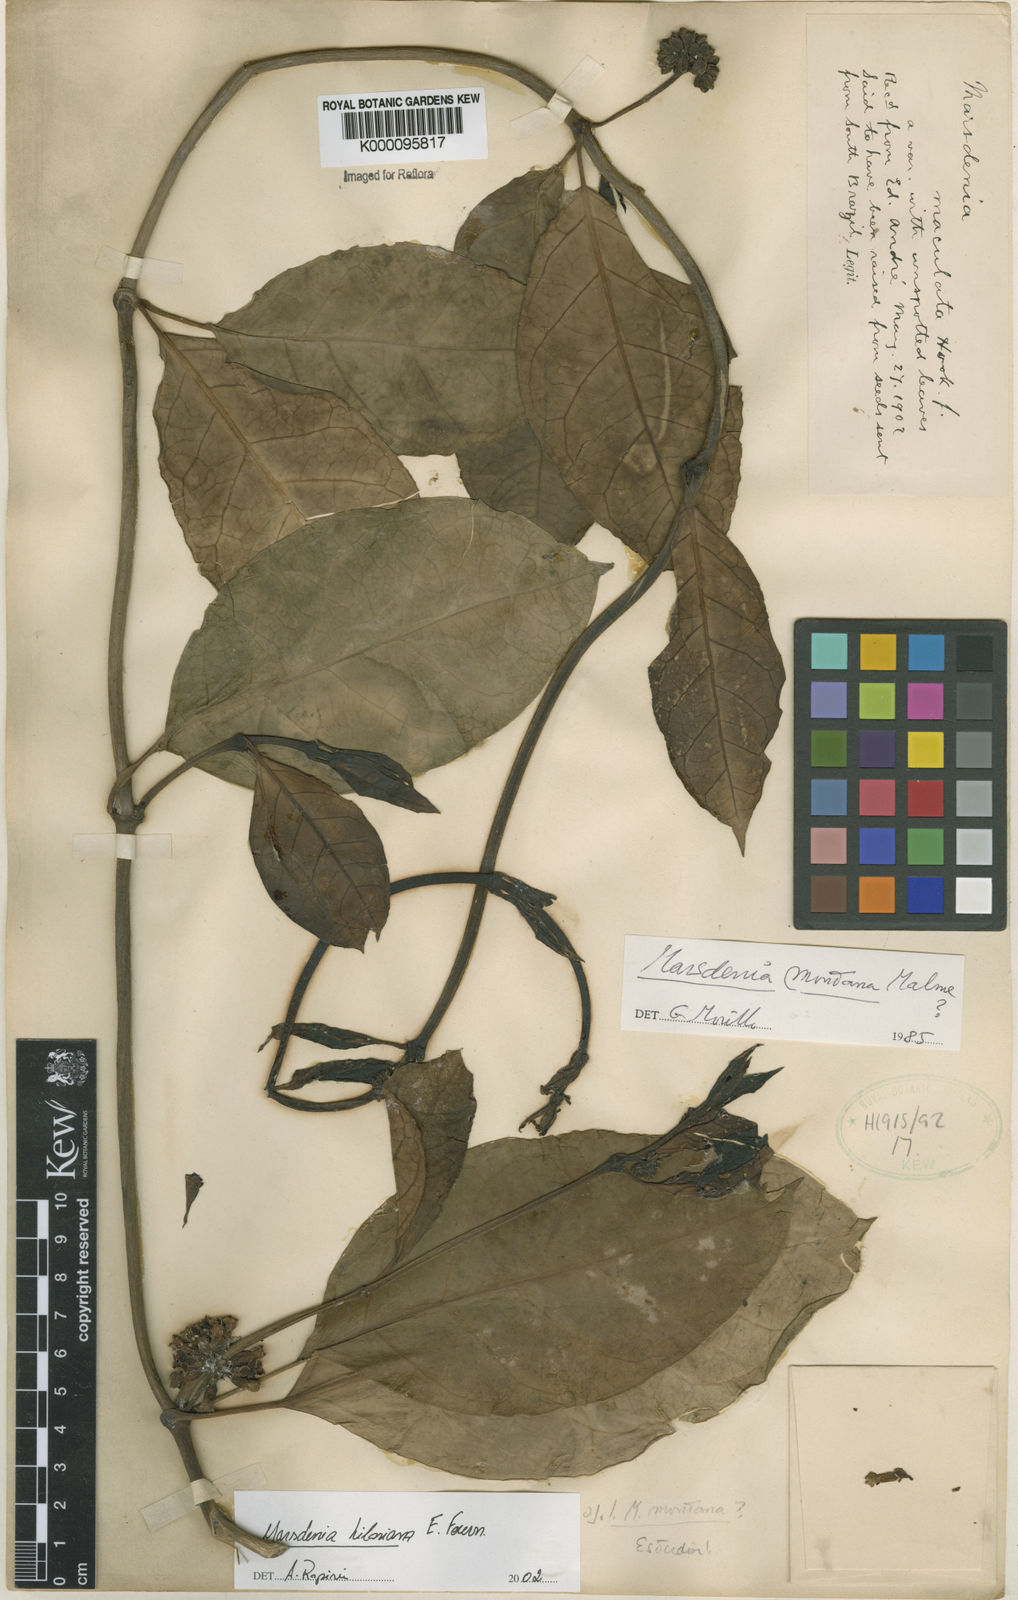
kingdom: Plantae
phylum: Tracheophyta
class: Magnoliopsida
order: Gentianales
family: Apocynaceae
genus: Ruehssia
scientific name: Ruehssia hilariana
